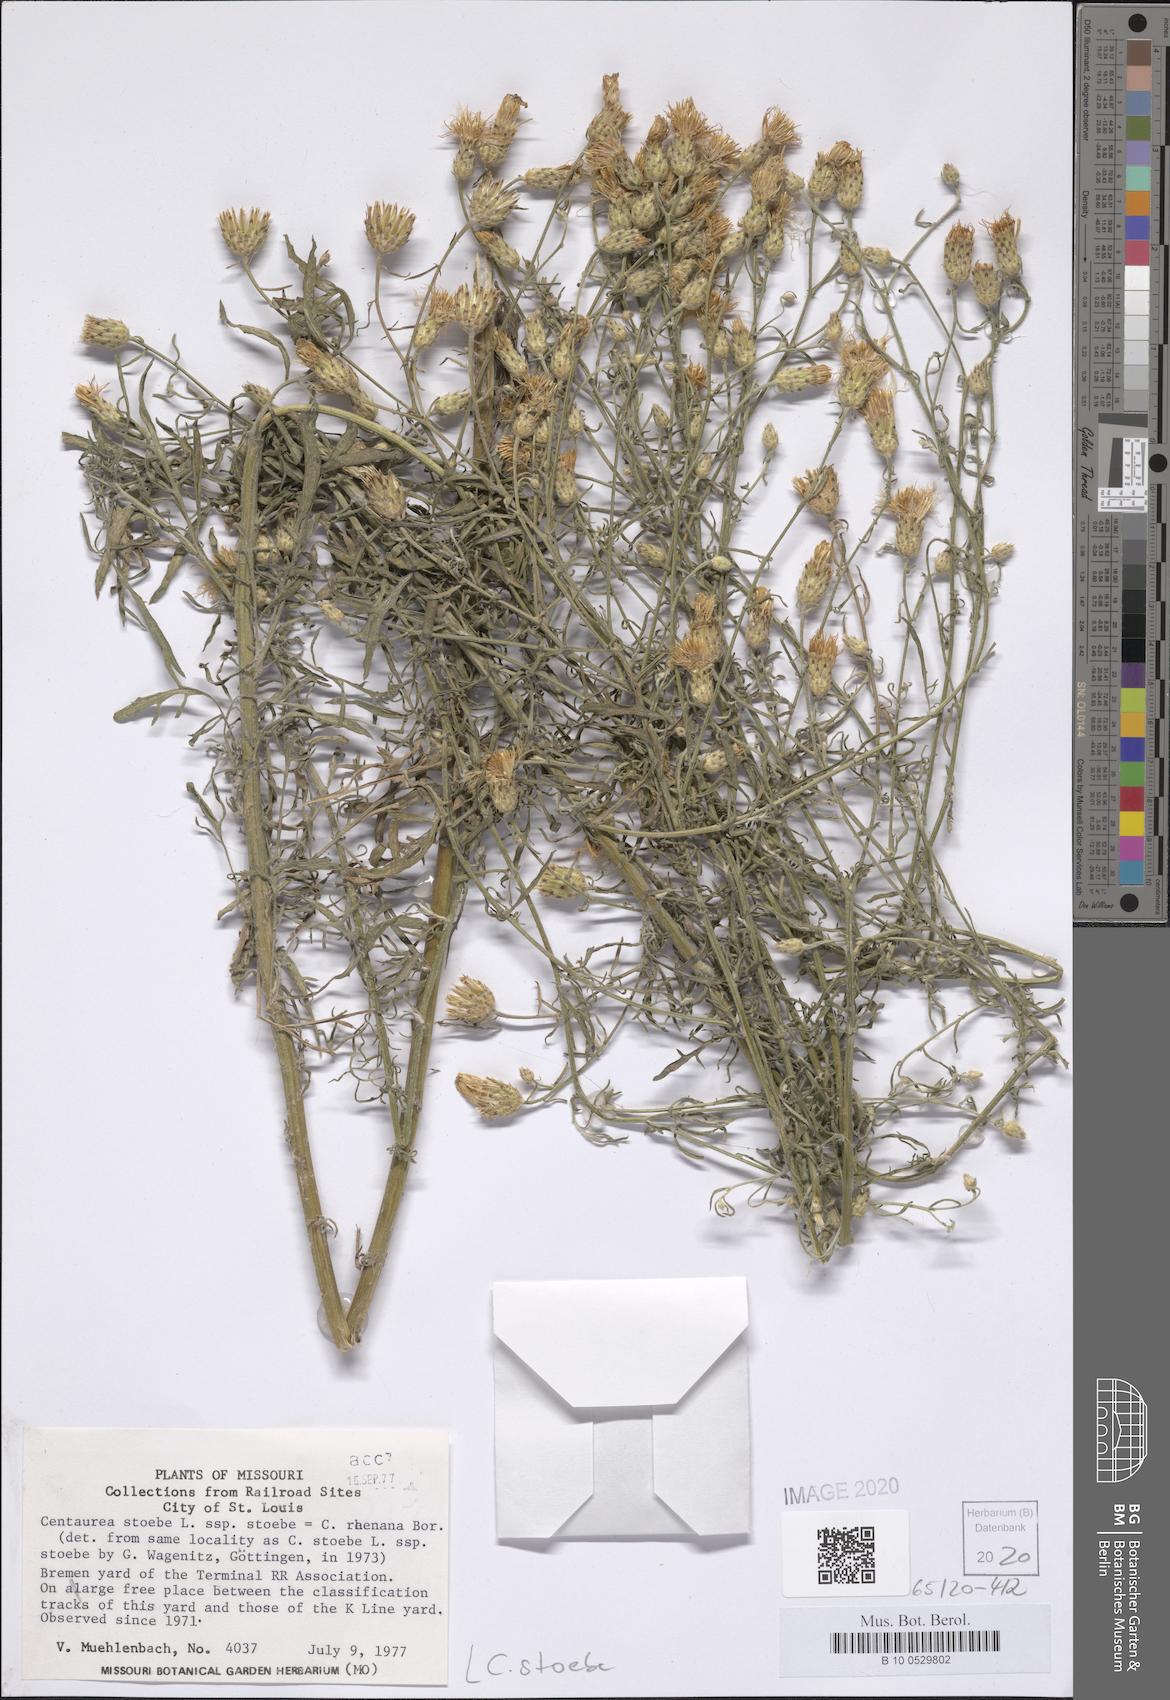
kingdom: Plantae
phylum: Tracheophyta
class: Magnoliopsida
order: Asterales
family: Asteraceae
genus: Centaurea
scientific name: Centaurea stoebe
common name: Spotted knapweed
